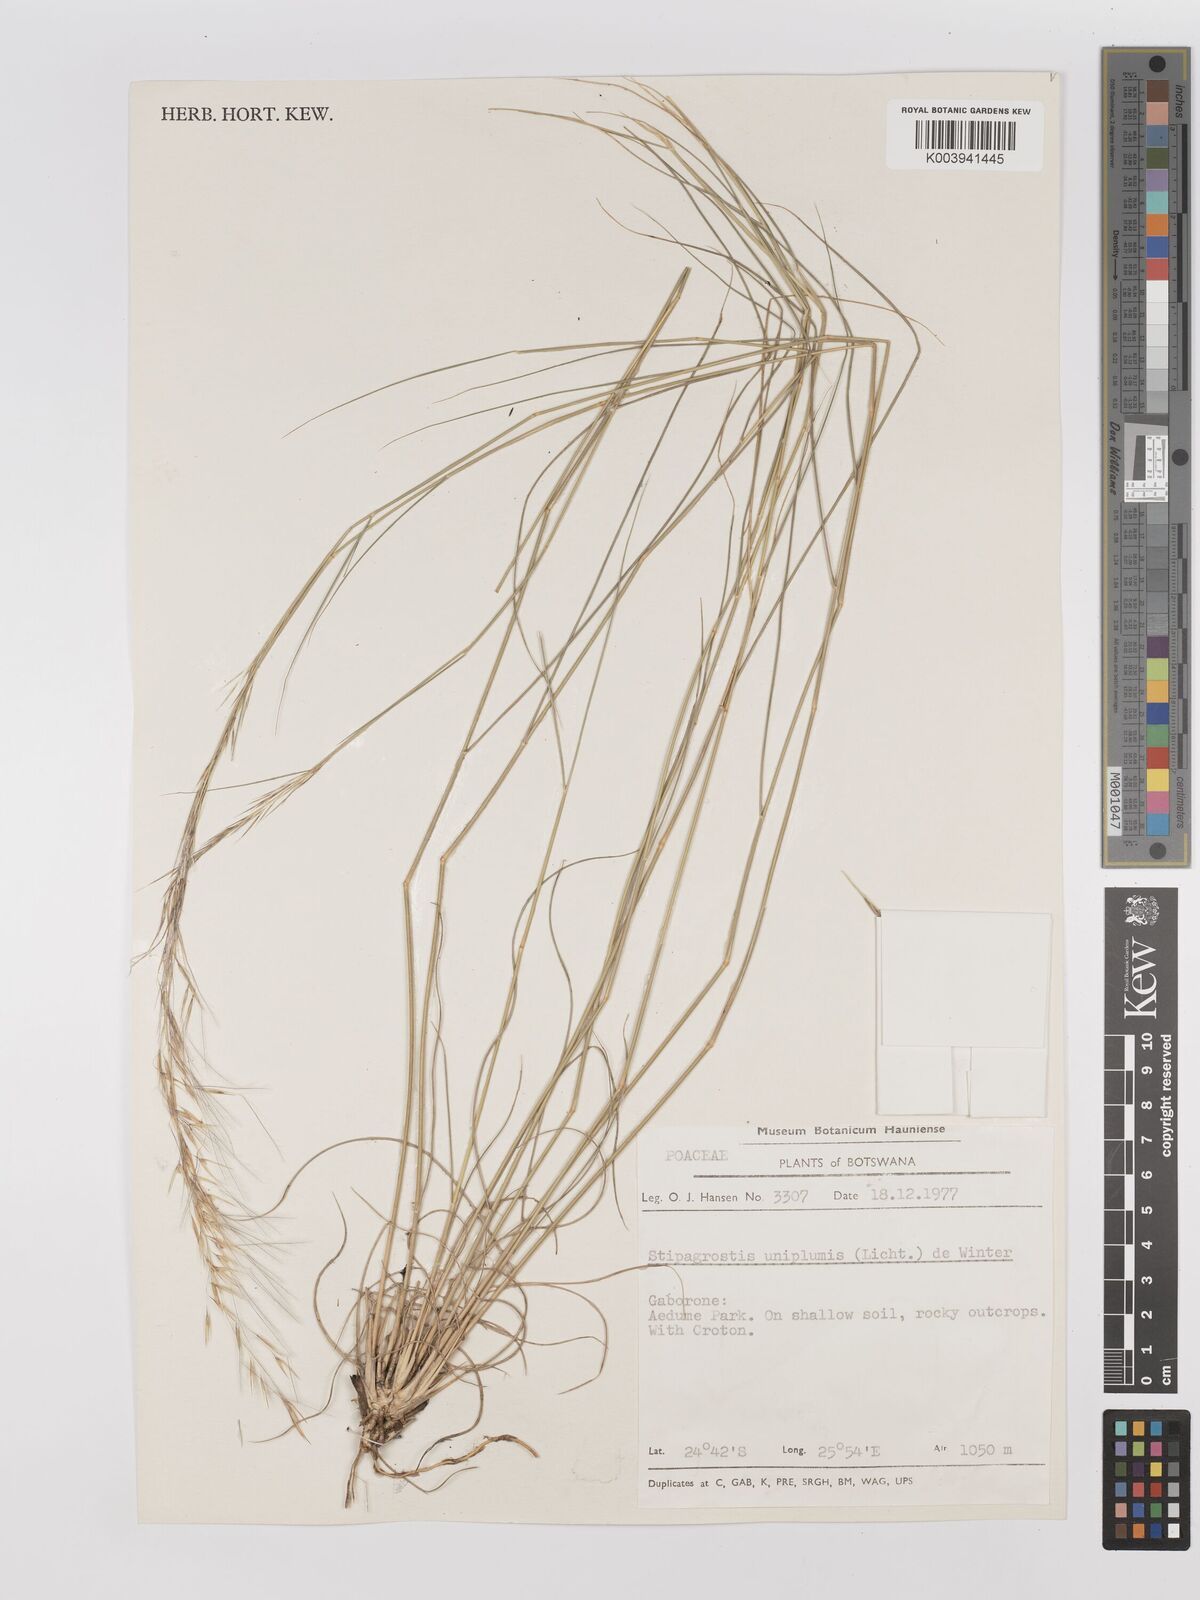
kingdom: Plantae
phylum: Tracheophyta
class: Liliopsida
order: Poales
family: Poaceae
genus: Stipagrostis
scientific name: Stipagrostis uniplumis
